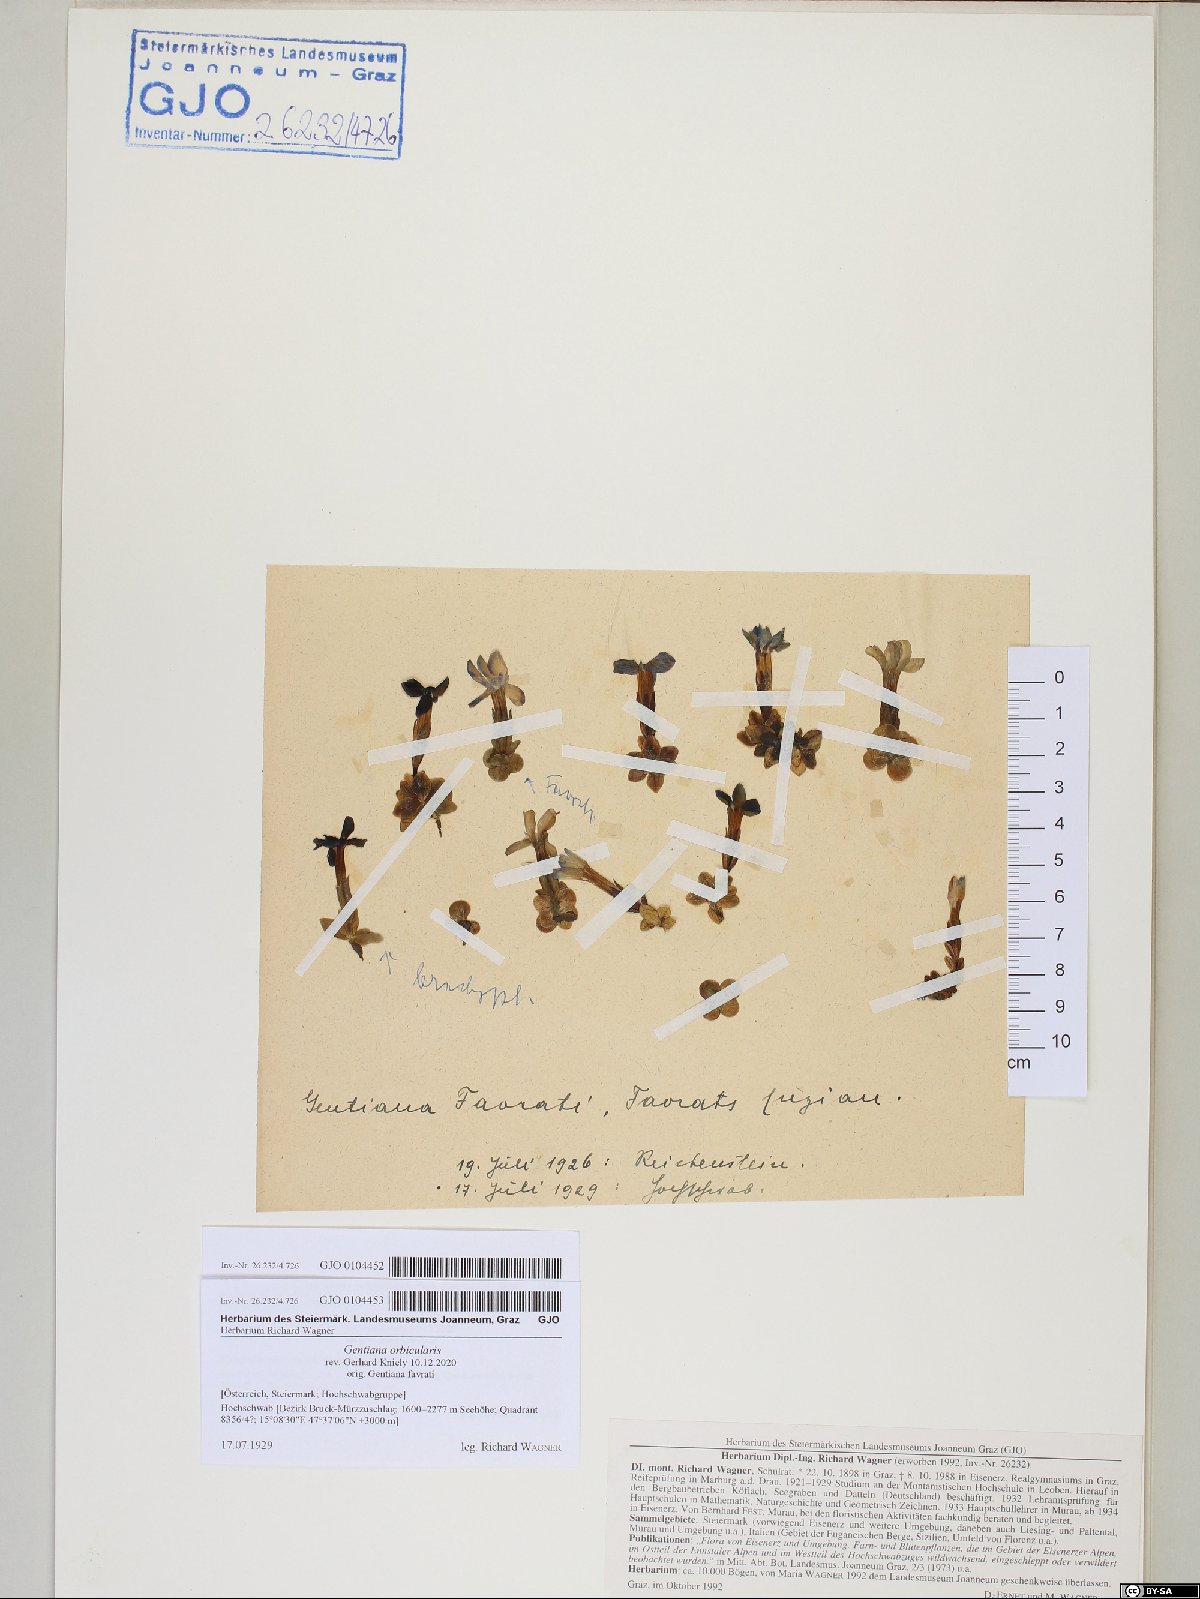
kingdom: Plantae
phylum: Tracheophyta
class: Magnoliopsida
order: Gentianales
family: Gentianaceae
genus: Gentiana
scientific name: Gentiana orbicularis
